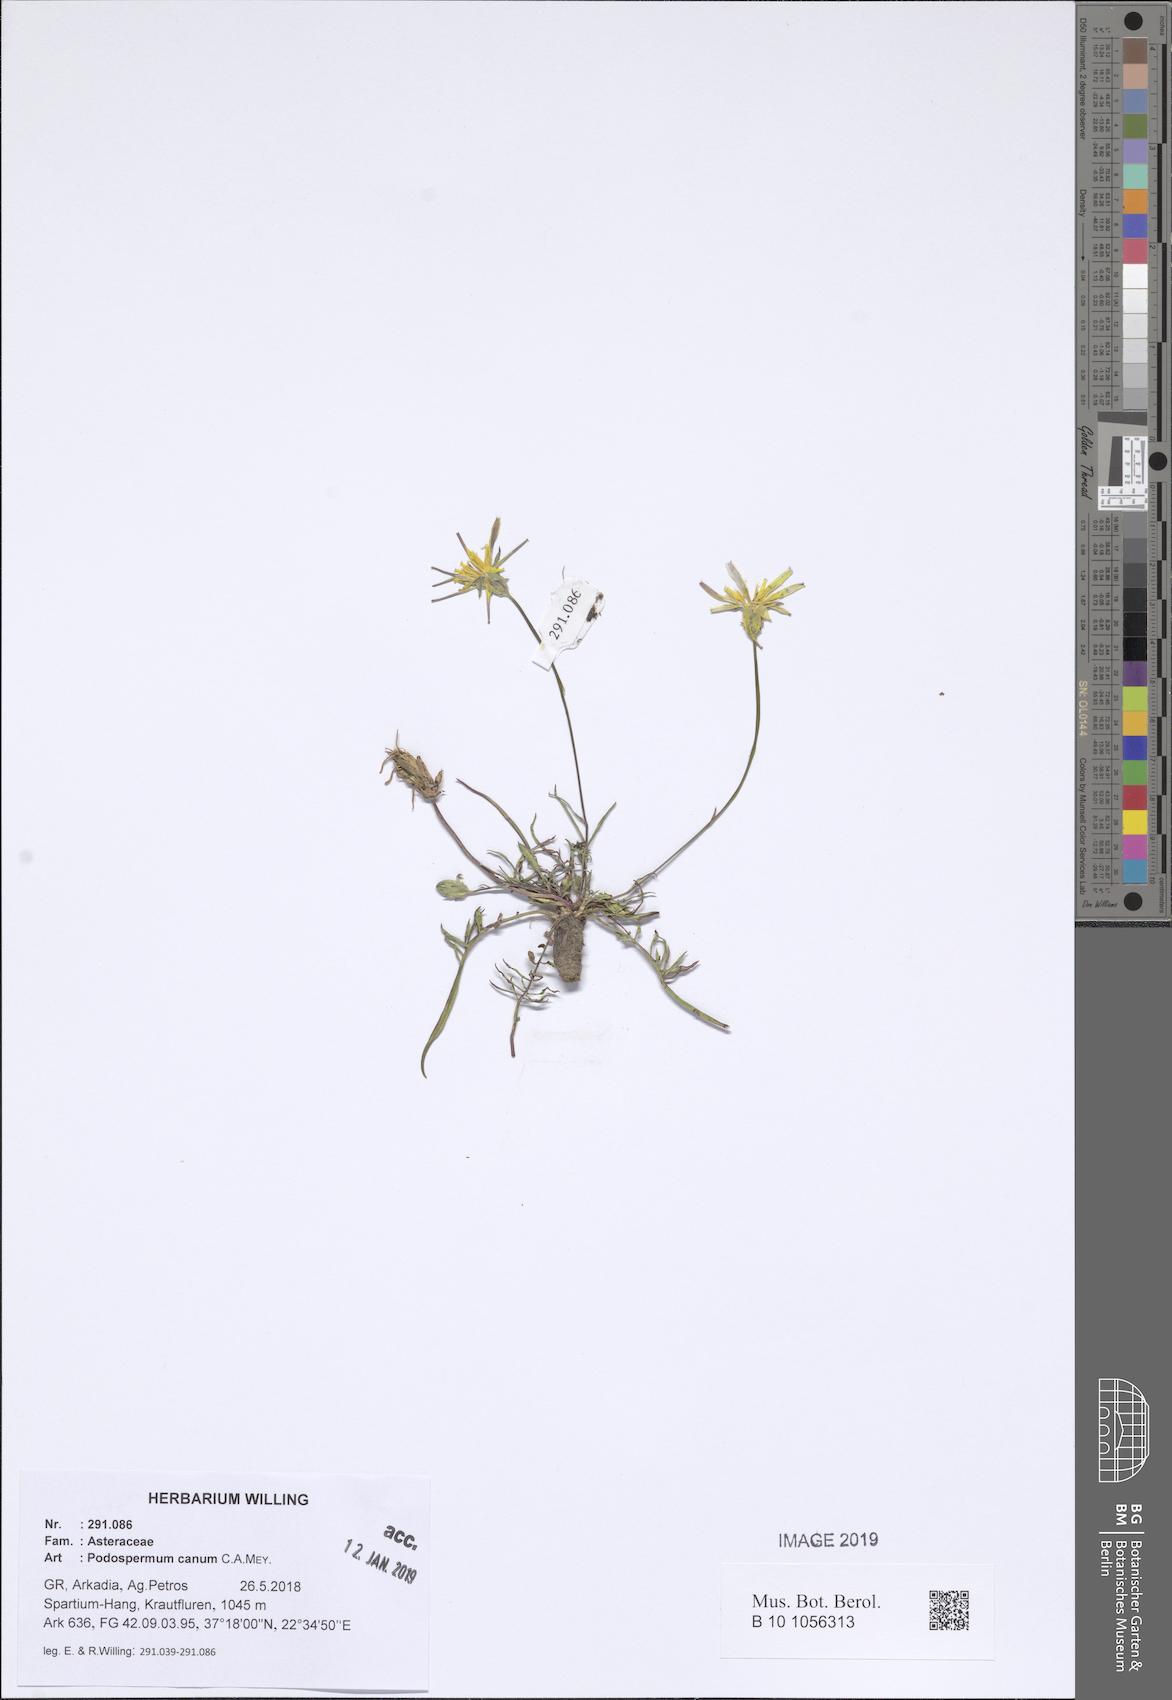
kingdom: Plantae
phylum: Tracheophyta
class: Magnoliopsida
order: Asterales
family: Asteraceae
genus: Scorzonera
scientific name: Scorzonera cana
